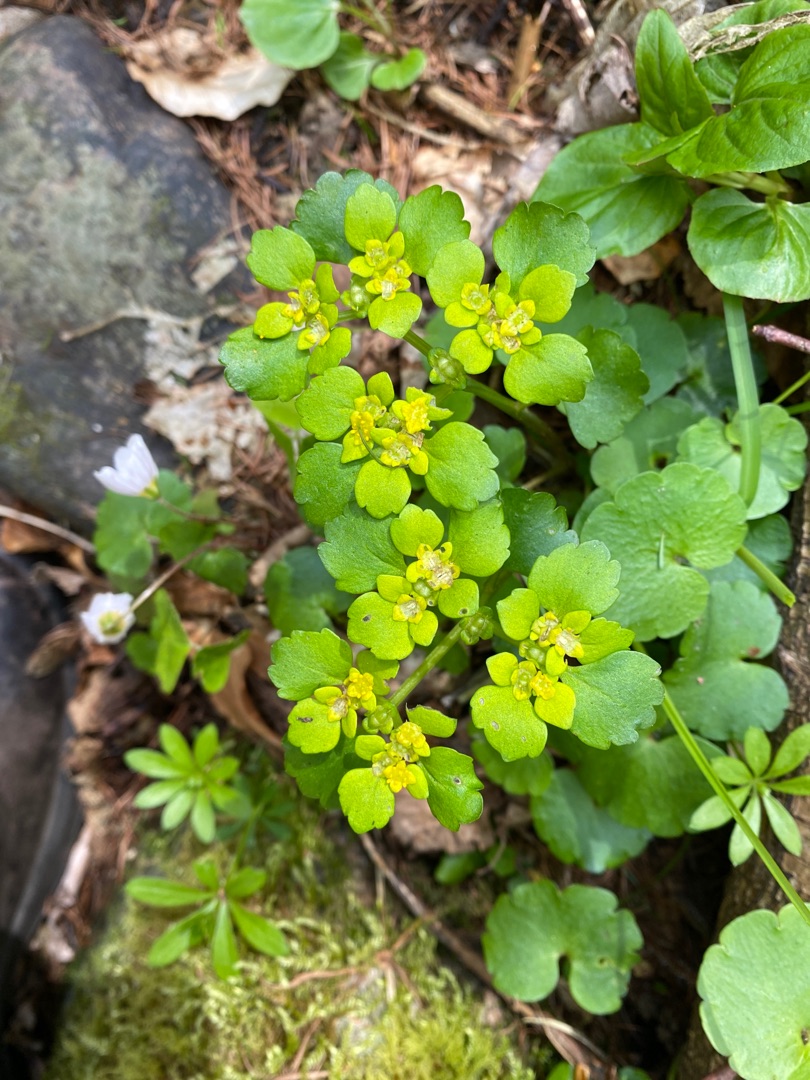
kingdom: Plantae
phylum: Tracheophyta
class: Magnoliopsida
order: Saxifragales
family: Saxifragaceae
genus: Chrysosplenium
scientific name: Chrysosplenium alternifolium
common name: Almindelig milturt
